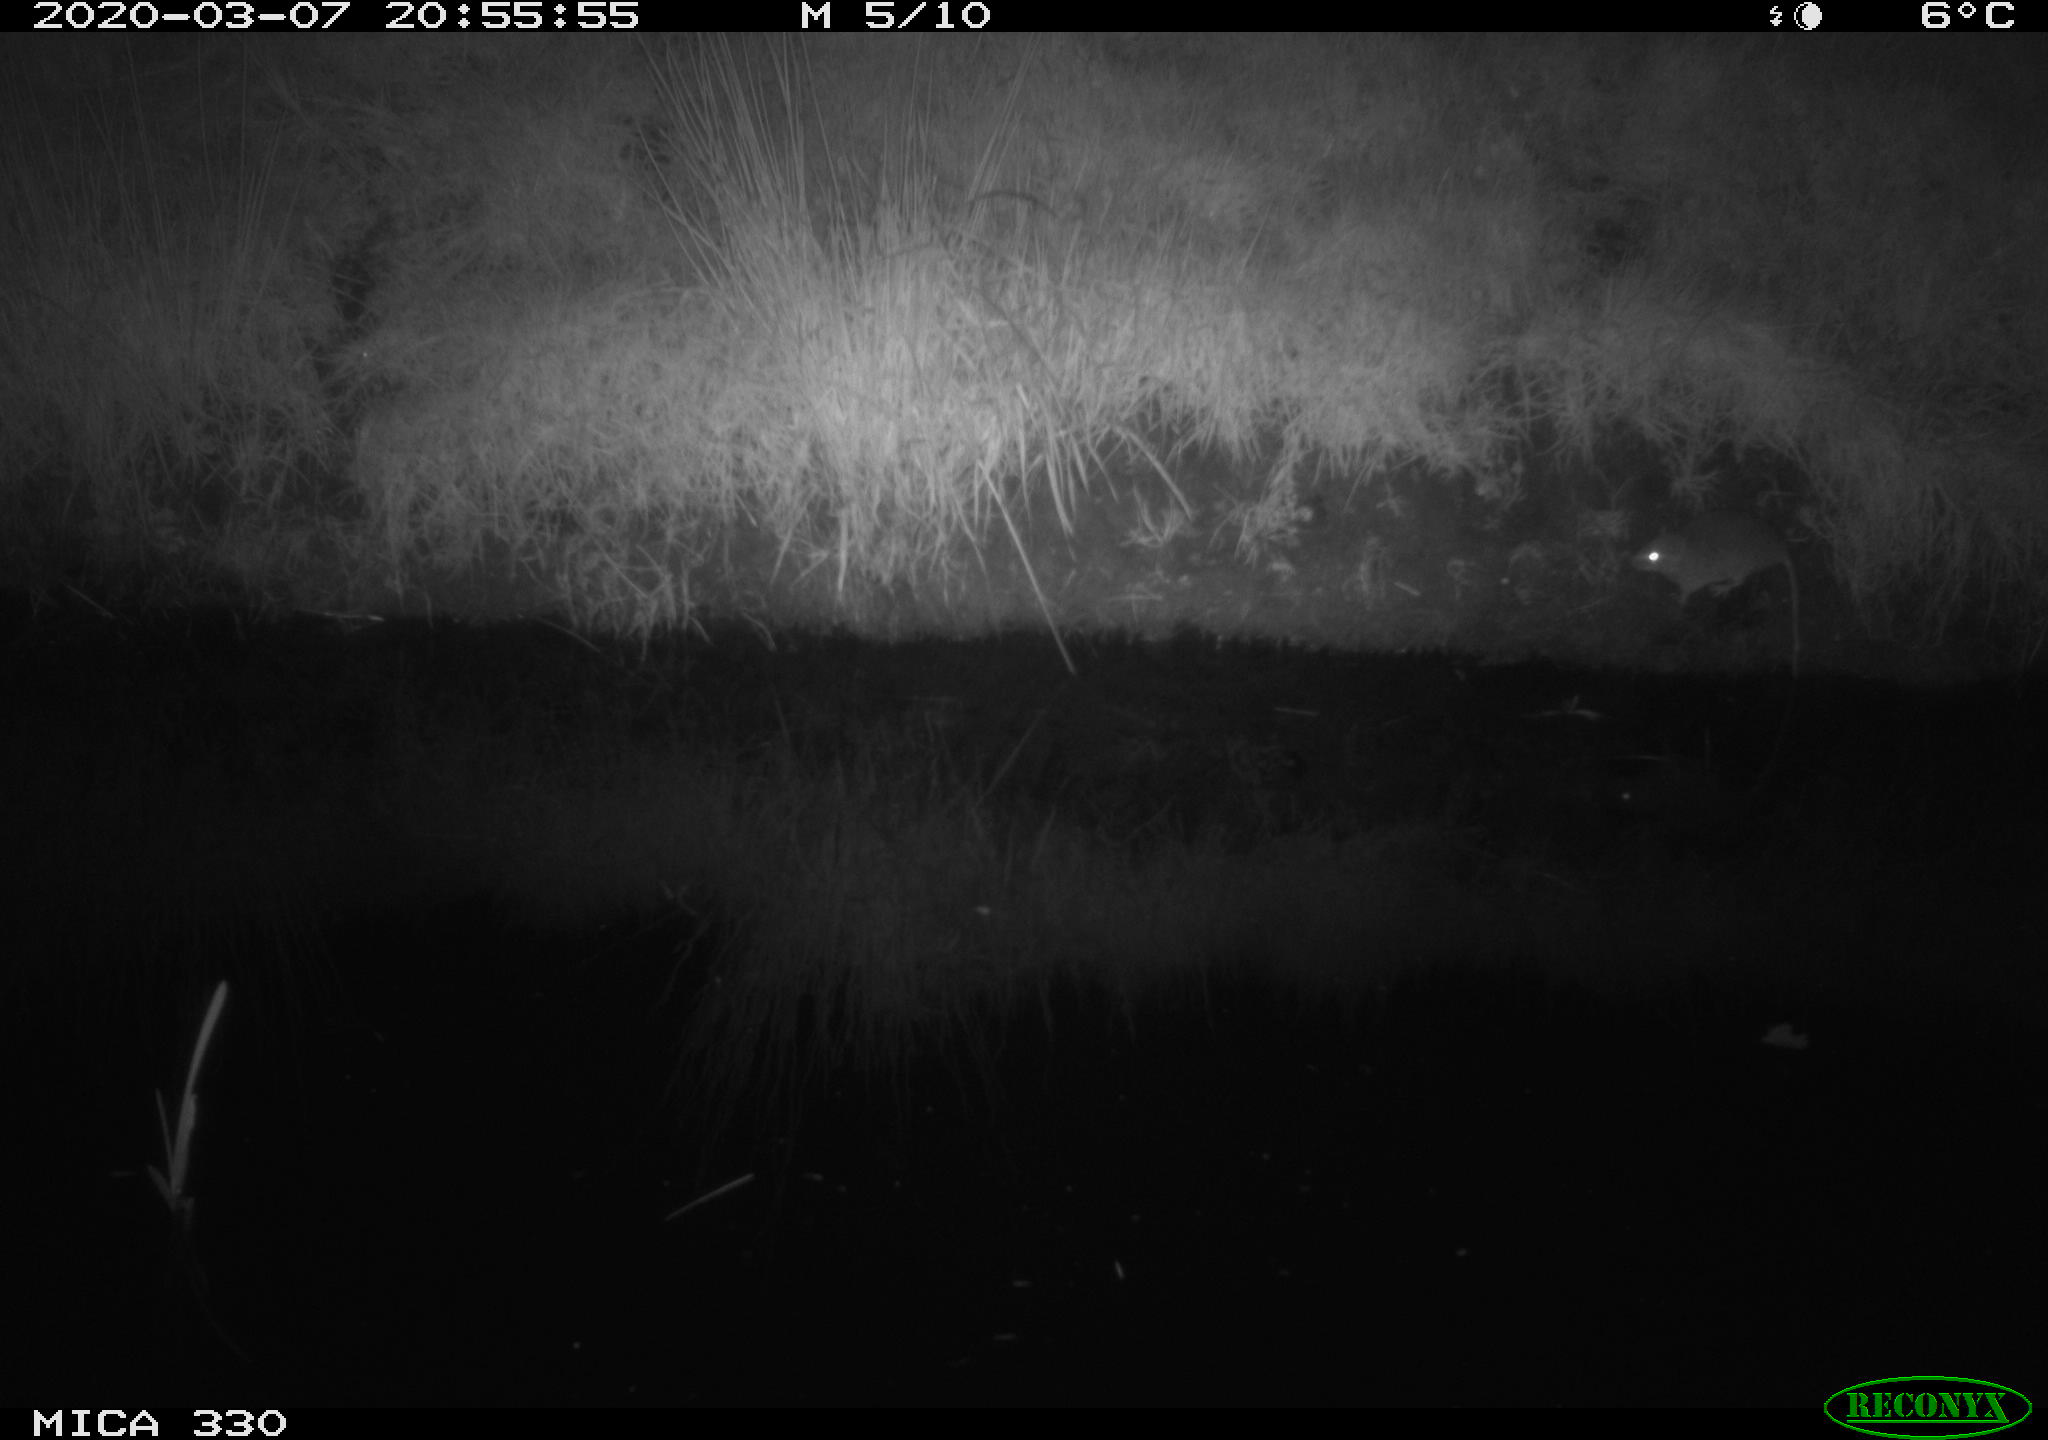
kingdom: Animalia
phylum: Chordata
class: Mammalia
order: Rodentia
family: Muridae
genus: Rattus
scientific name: Rattus norvegicus
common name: Brown rat
